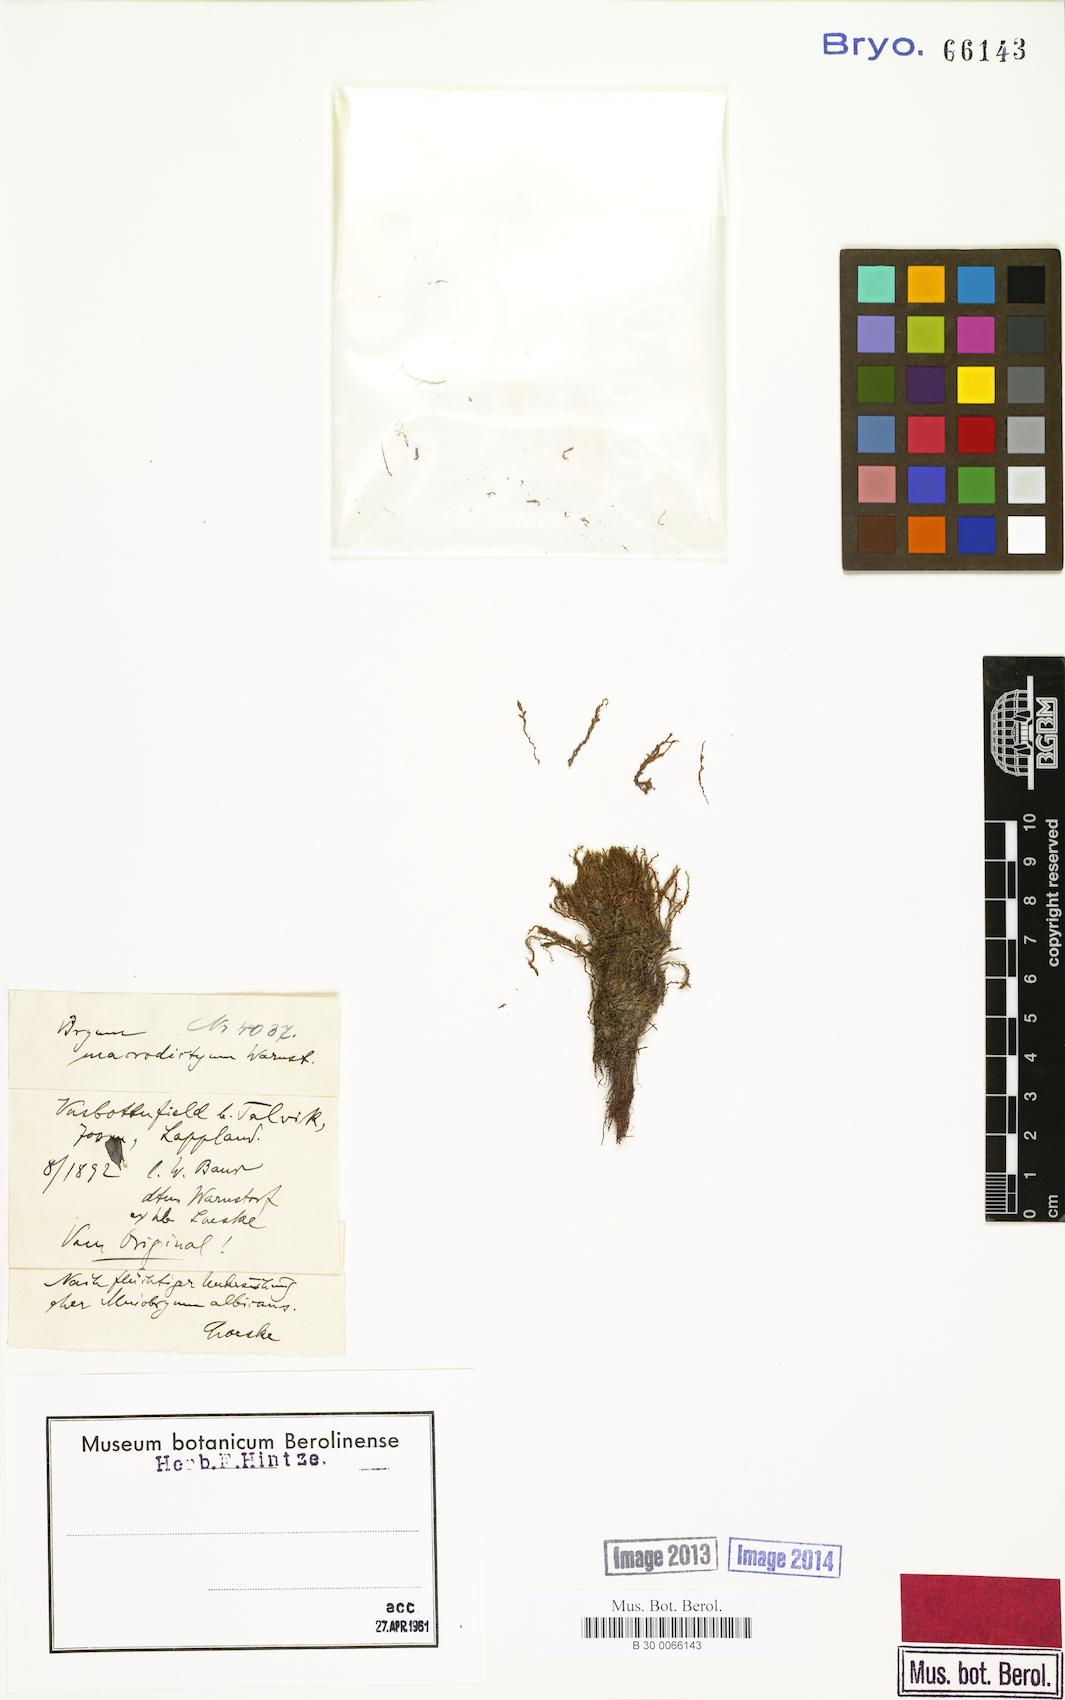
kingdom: Plantae
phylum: Bryophyta
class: Bryopsida
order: Bryales
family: Bryaceae
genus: Bryum
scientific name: Bryum macrodictyum
